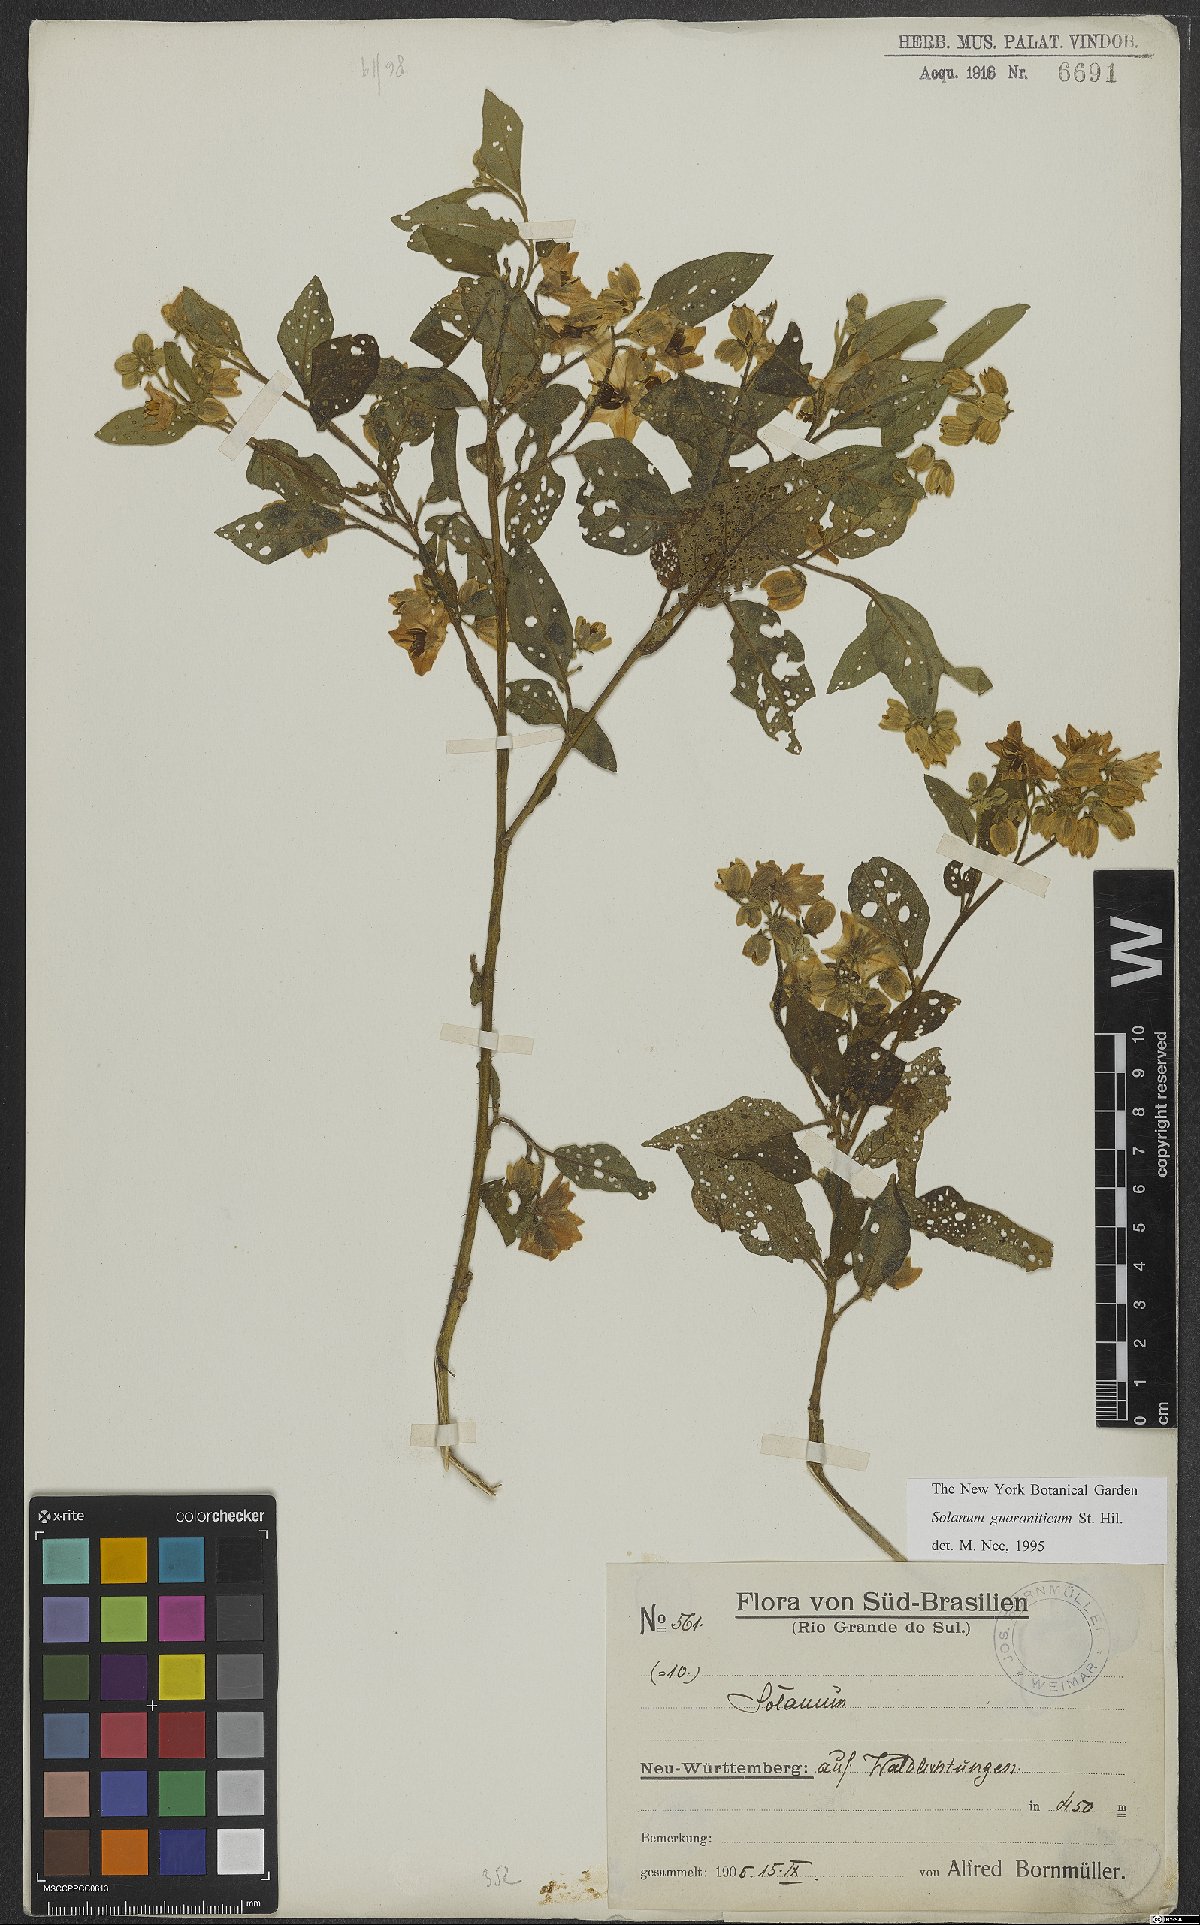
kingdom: Plantae
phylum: Tracheophyta
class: Magnoliopsida
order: Solanales
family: Solanaceae
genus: Solanum
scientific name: Solanum guaraniticum
